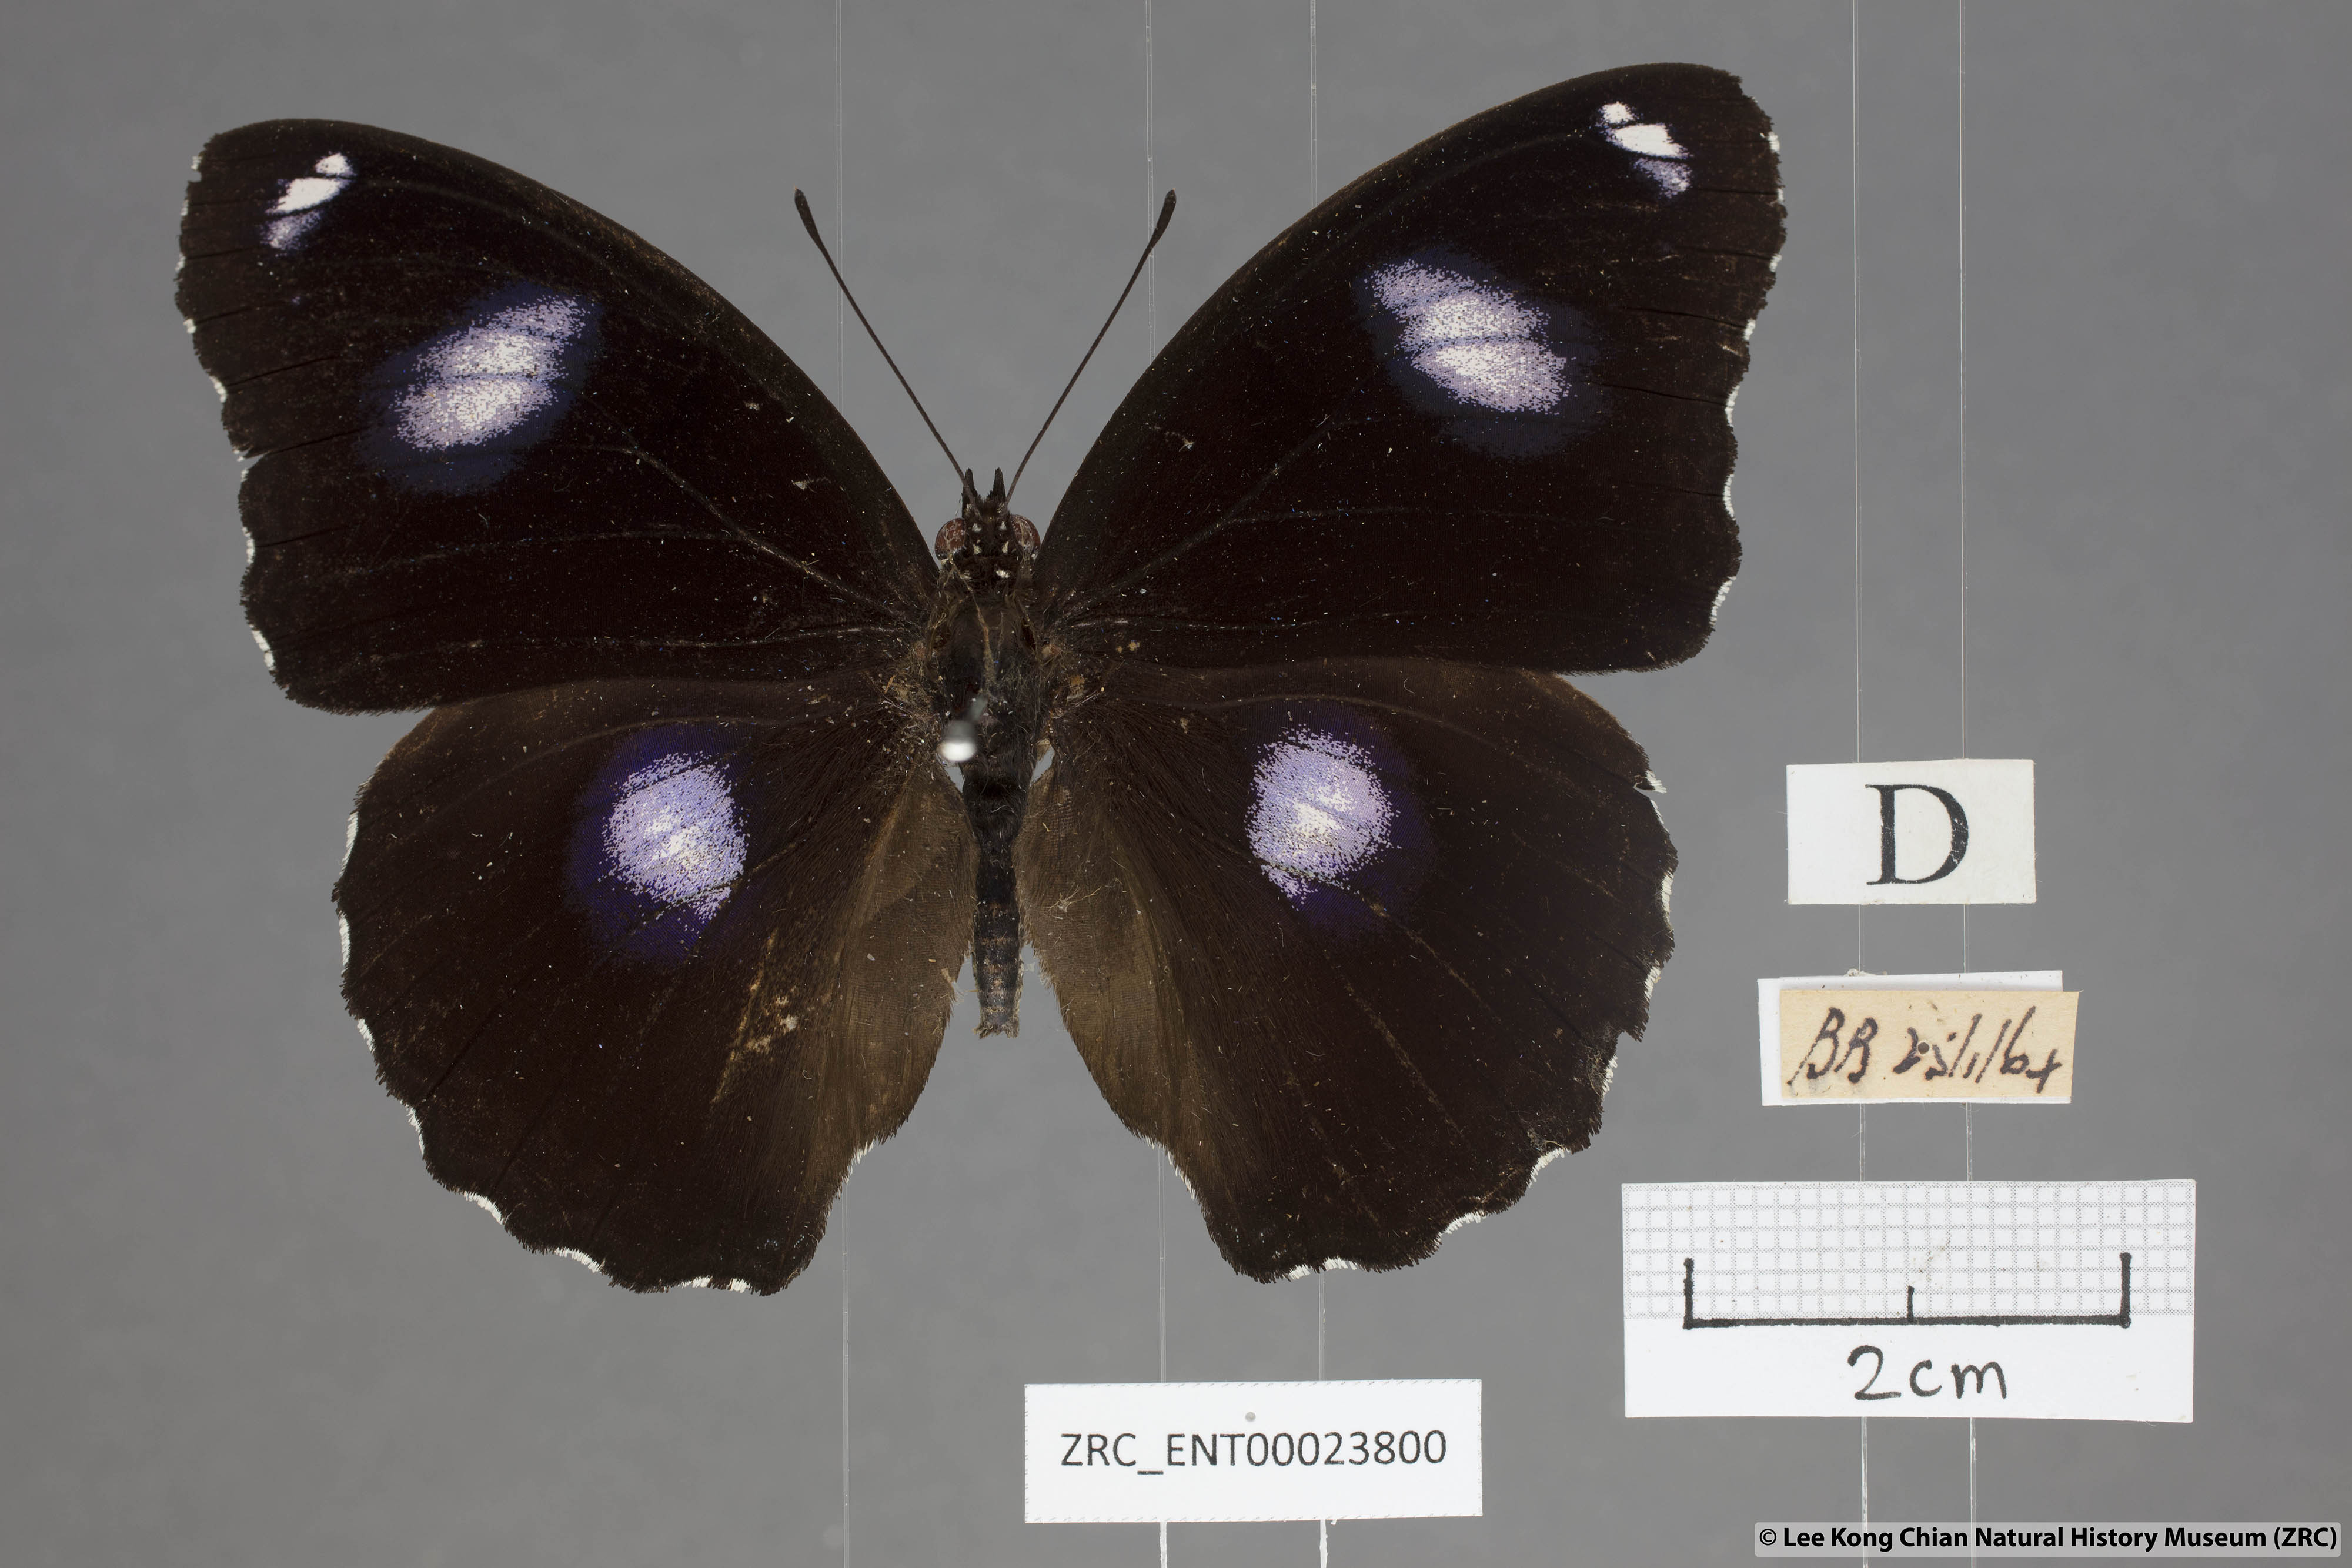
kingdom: Animalia
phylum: Arthropoda
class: Insecta
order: Lepidoptera
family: Nymphalidae
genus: Hypolimnas
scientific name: Hypolimnas bolina
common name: Great eggfly
